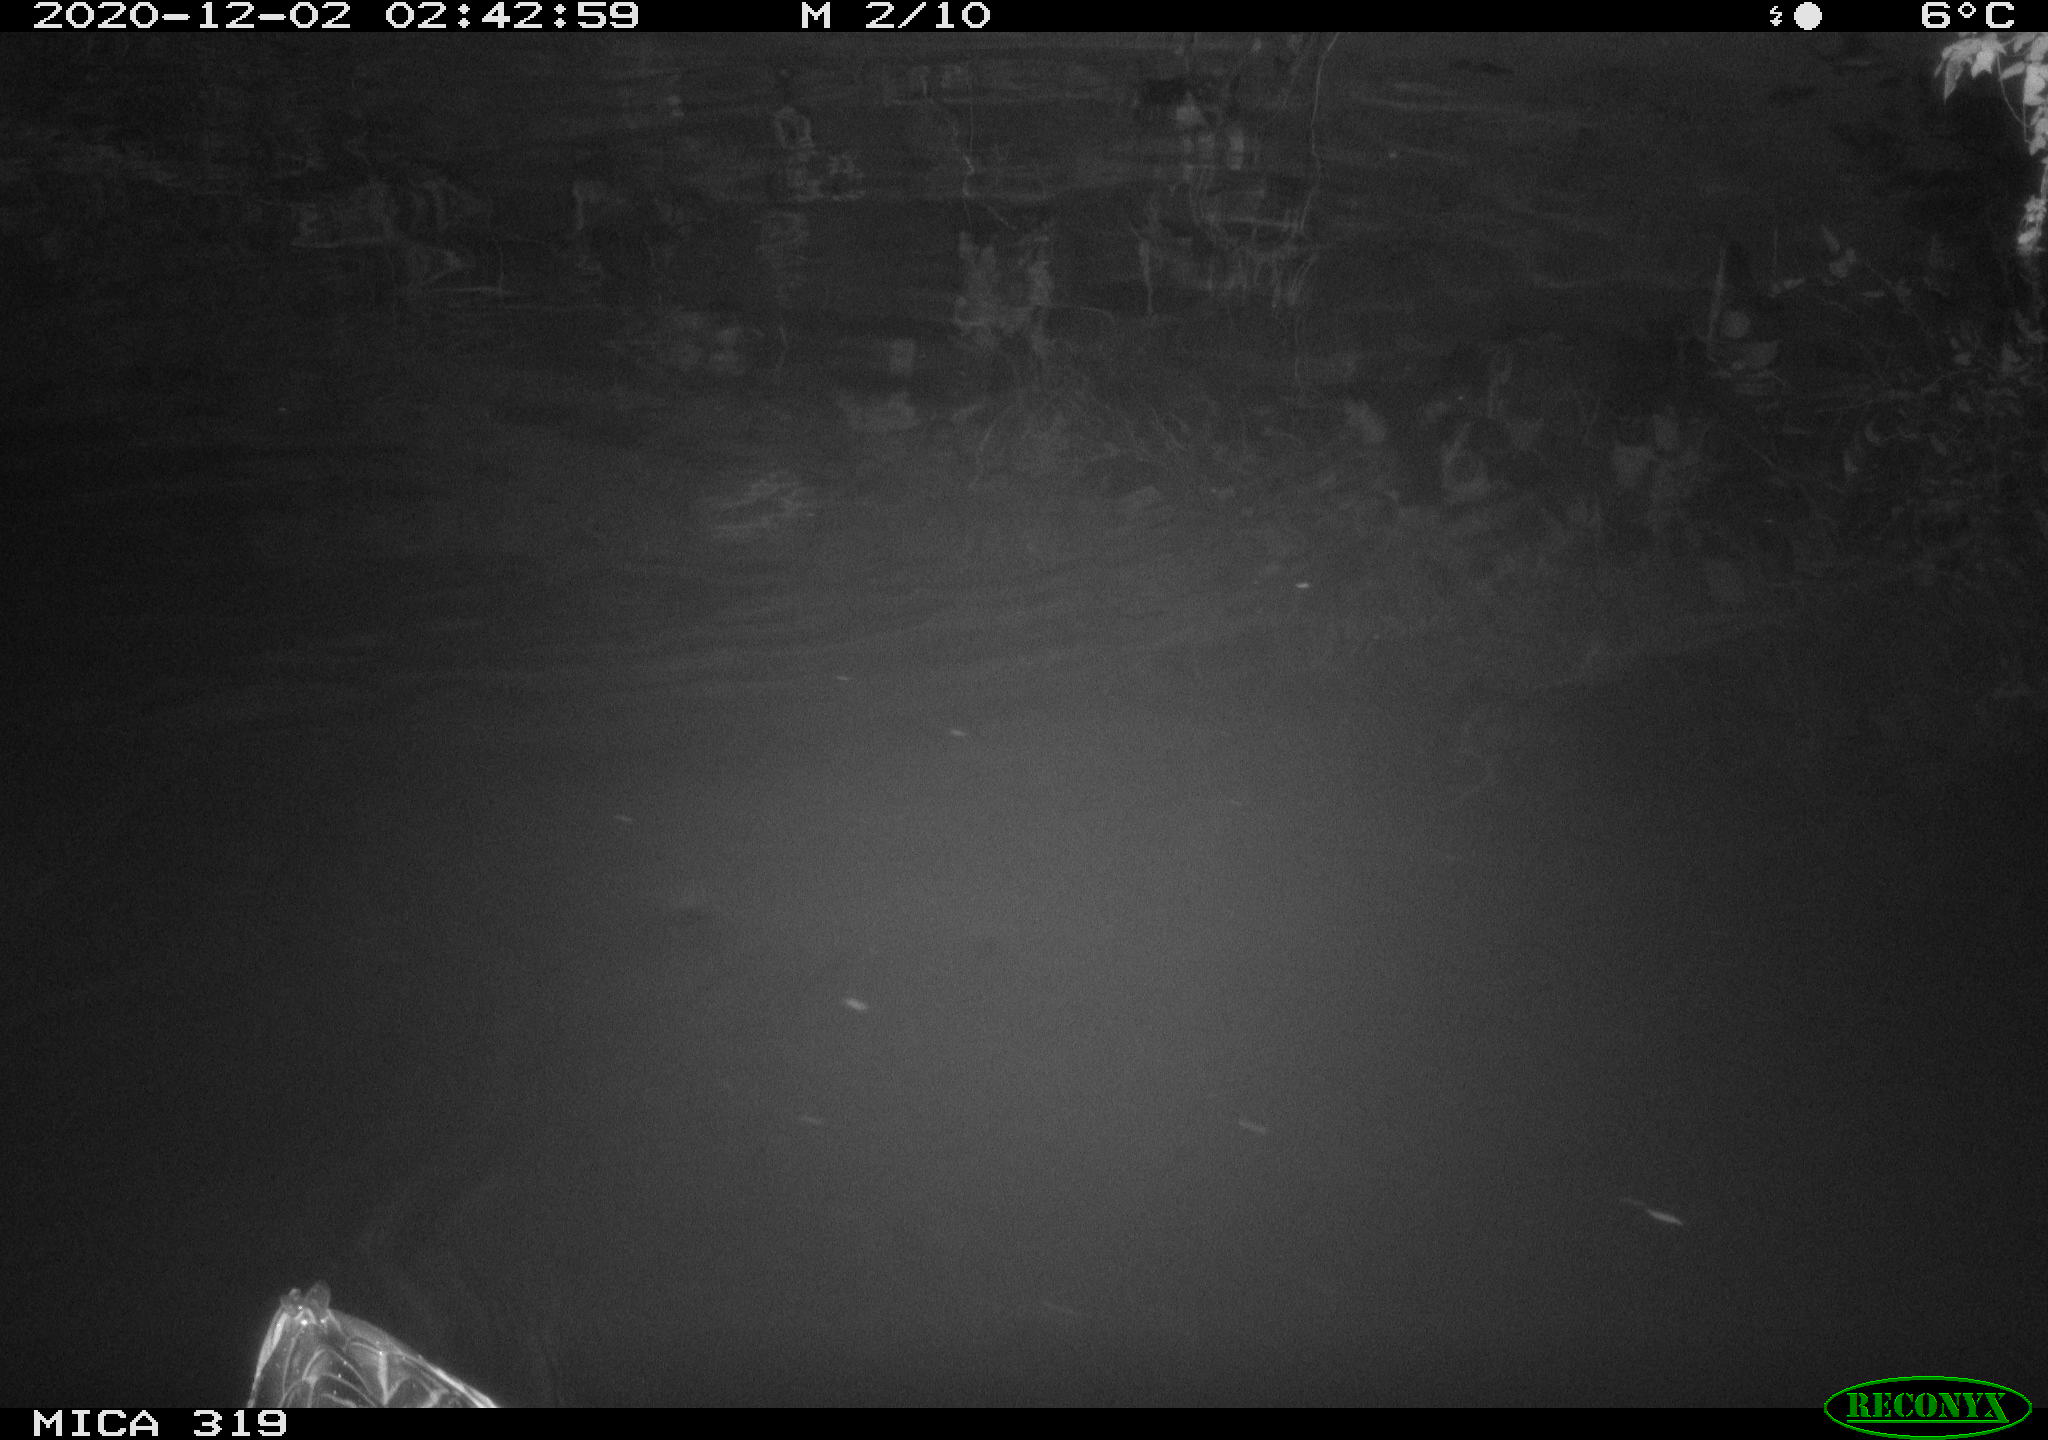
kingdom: Animalia
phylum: Chordata
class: Aves
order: Anseriformes
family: Anatidae
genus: Anas
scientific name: Anas platyrhynchos
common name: Mallard
